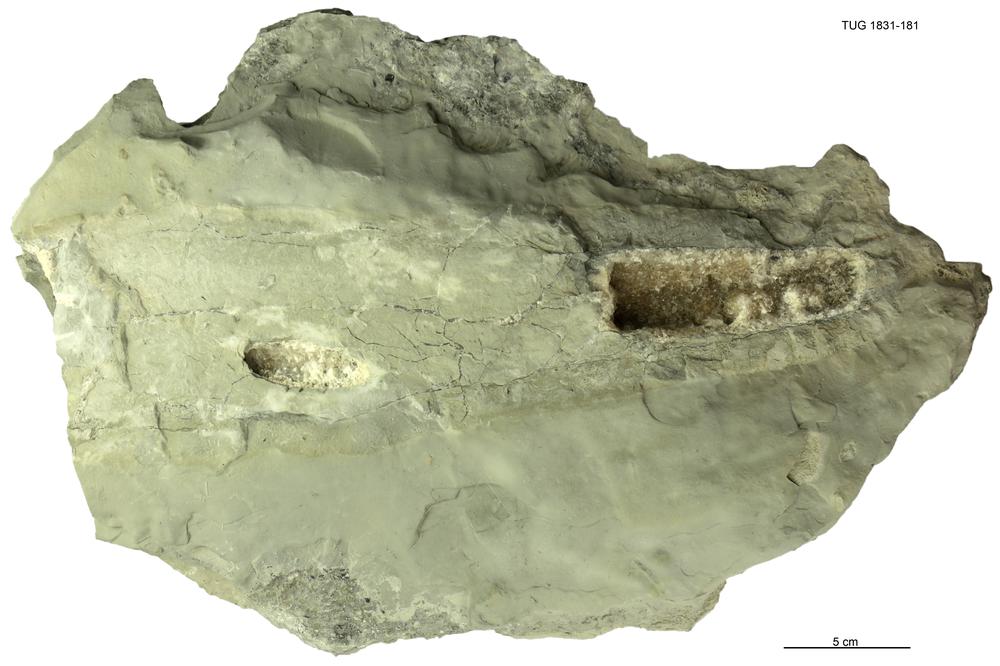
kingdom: Animalia
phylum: Mollusca
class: Cephalopoda
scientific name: Cephalopoda
